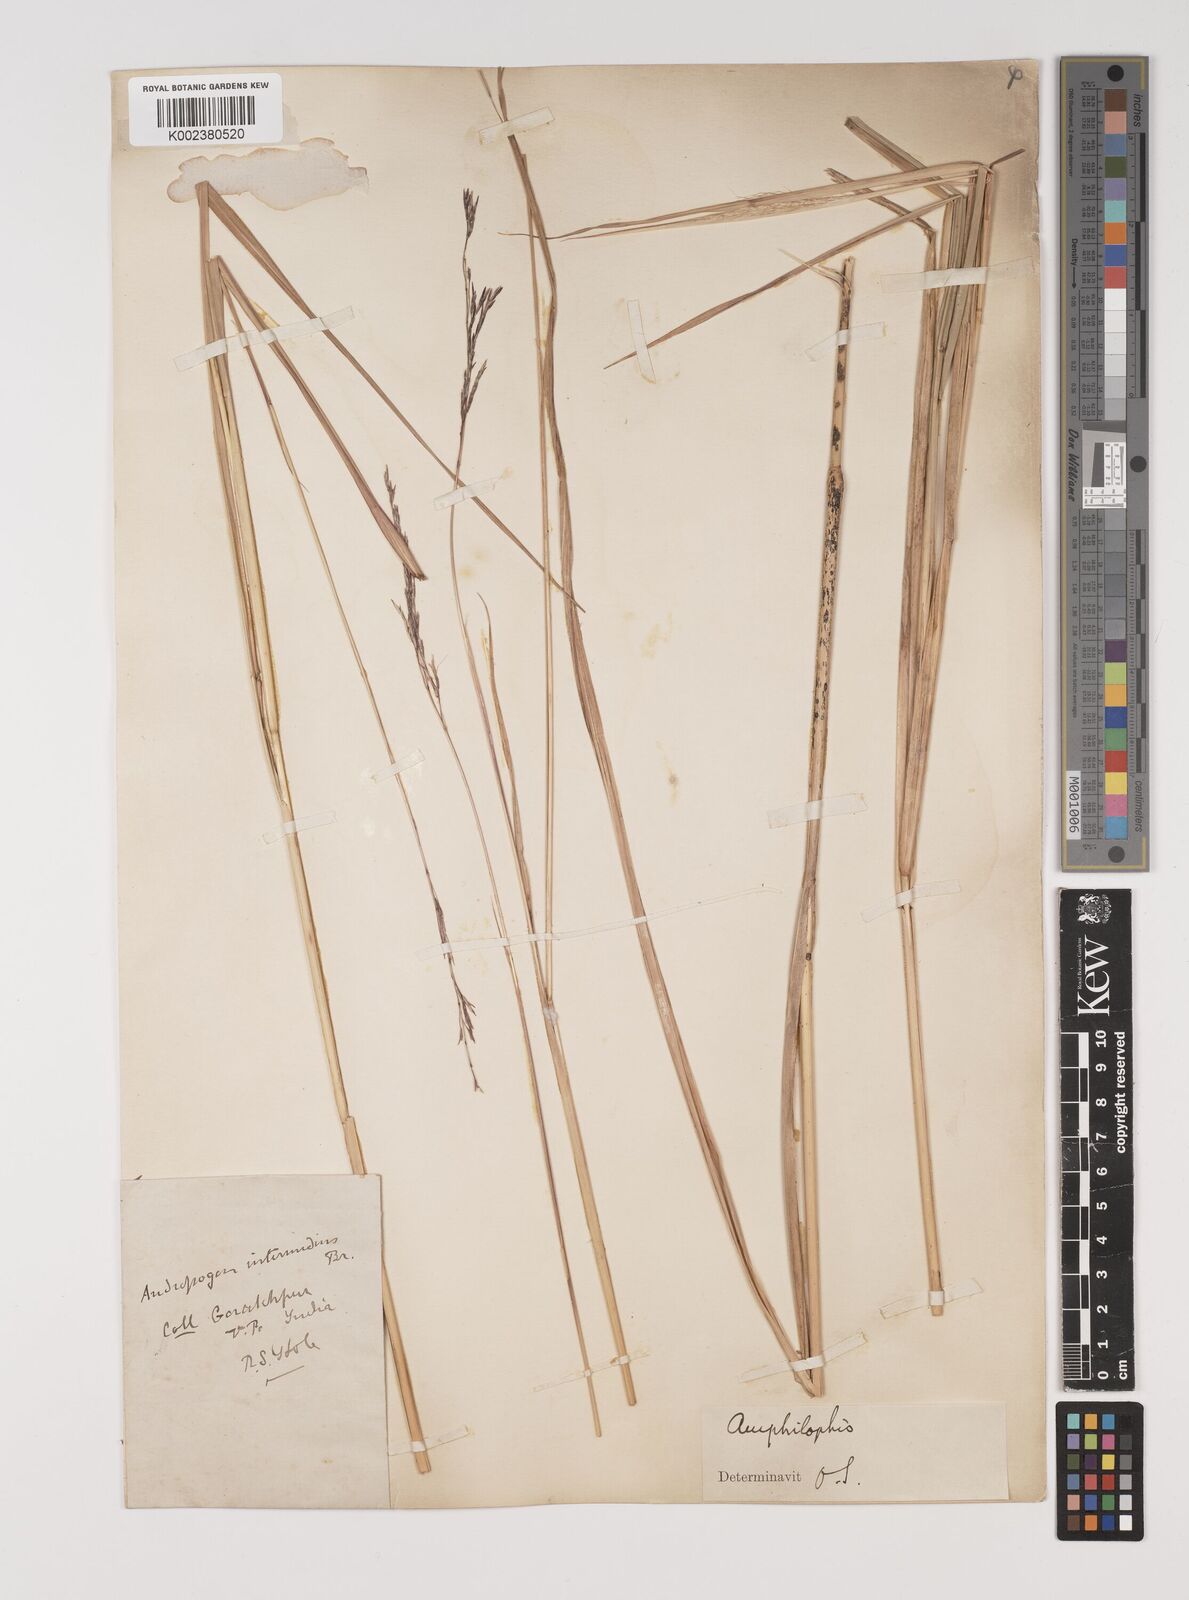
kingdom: Plantae
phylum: Tracheophyta
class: Liliopsida
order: Poales
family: Poaceae
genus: Bothriochloa
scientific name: Bothriochloa bladhii
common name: Caucasian bluestem
